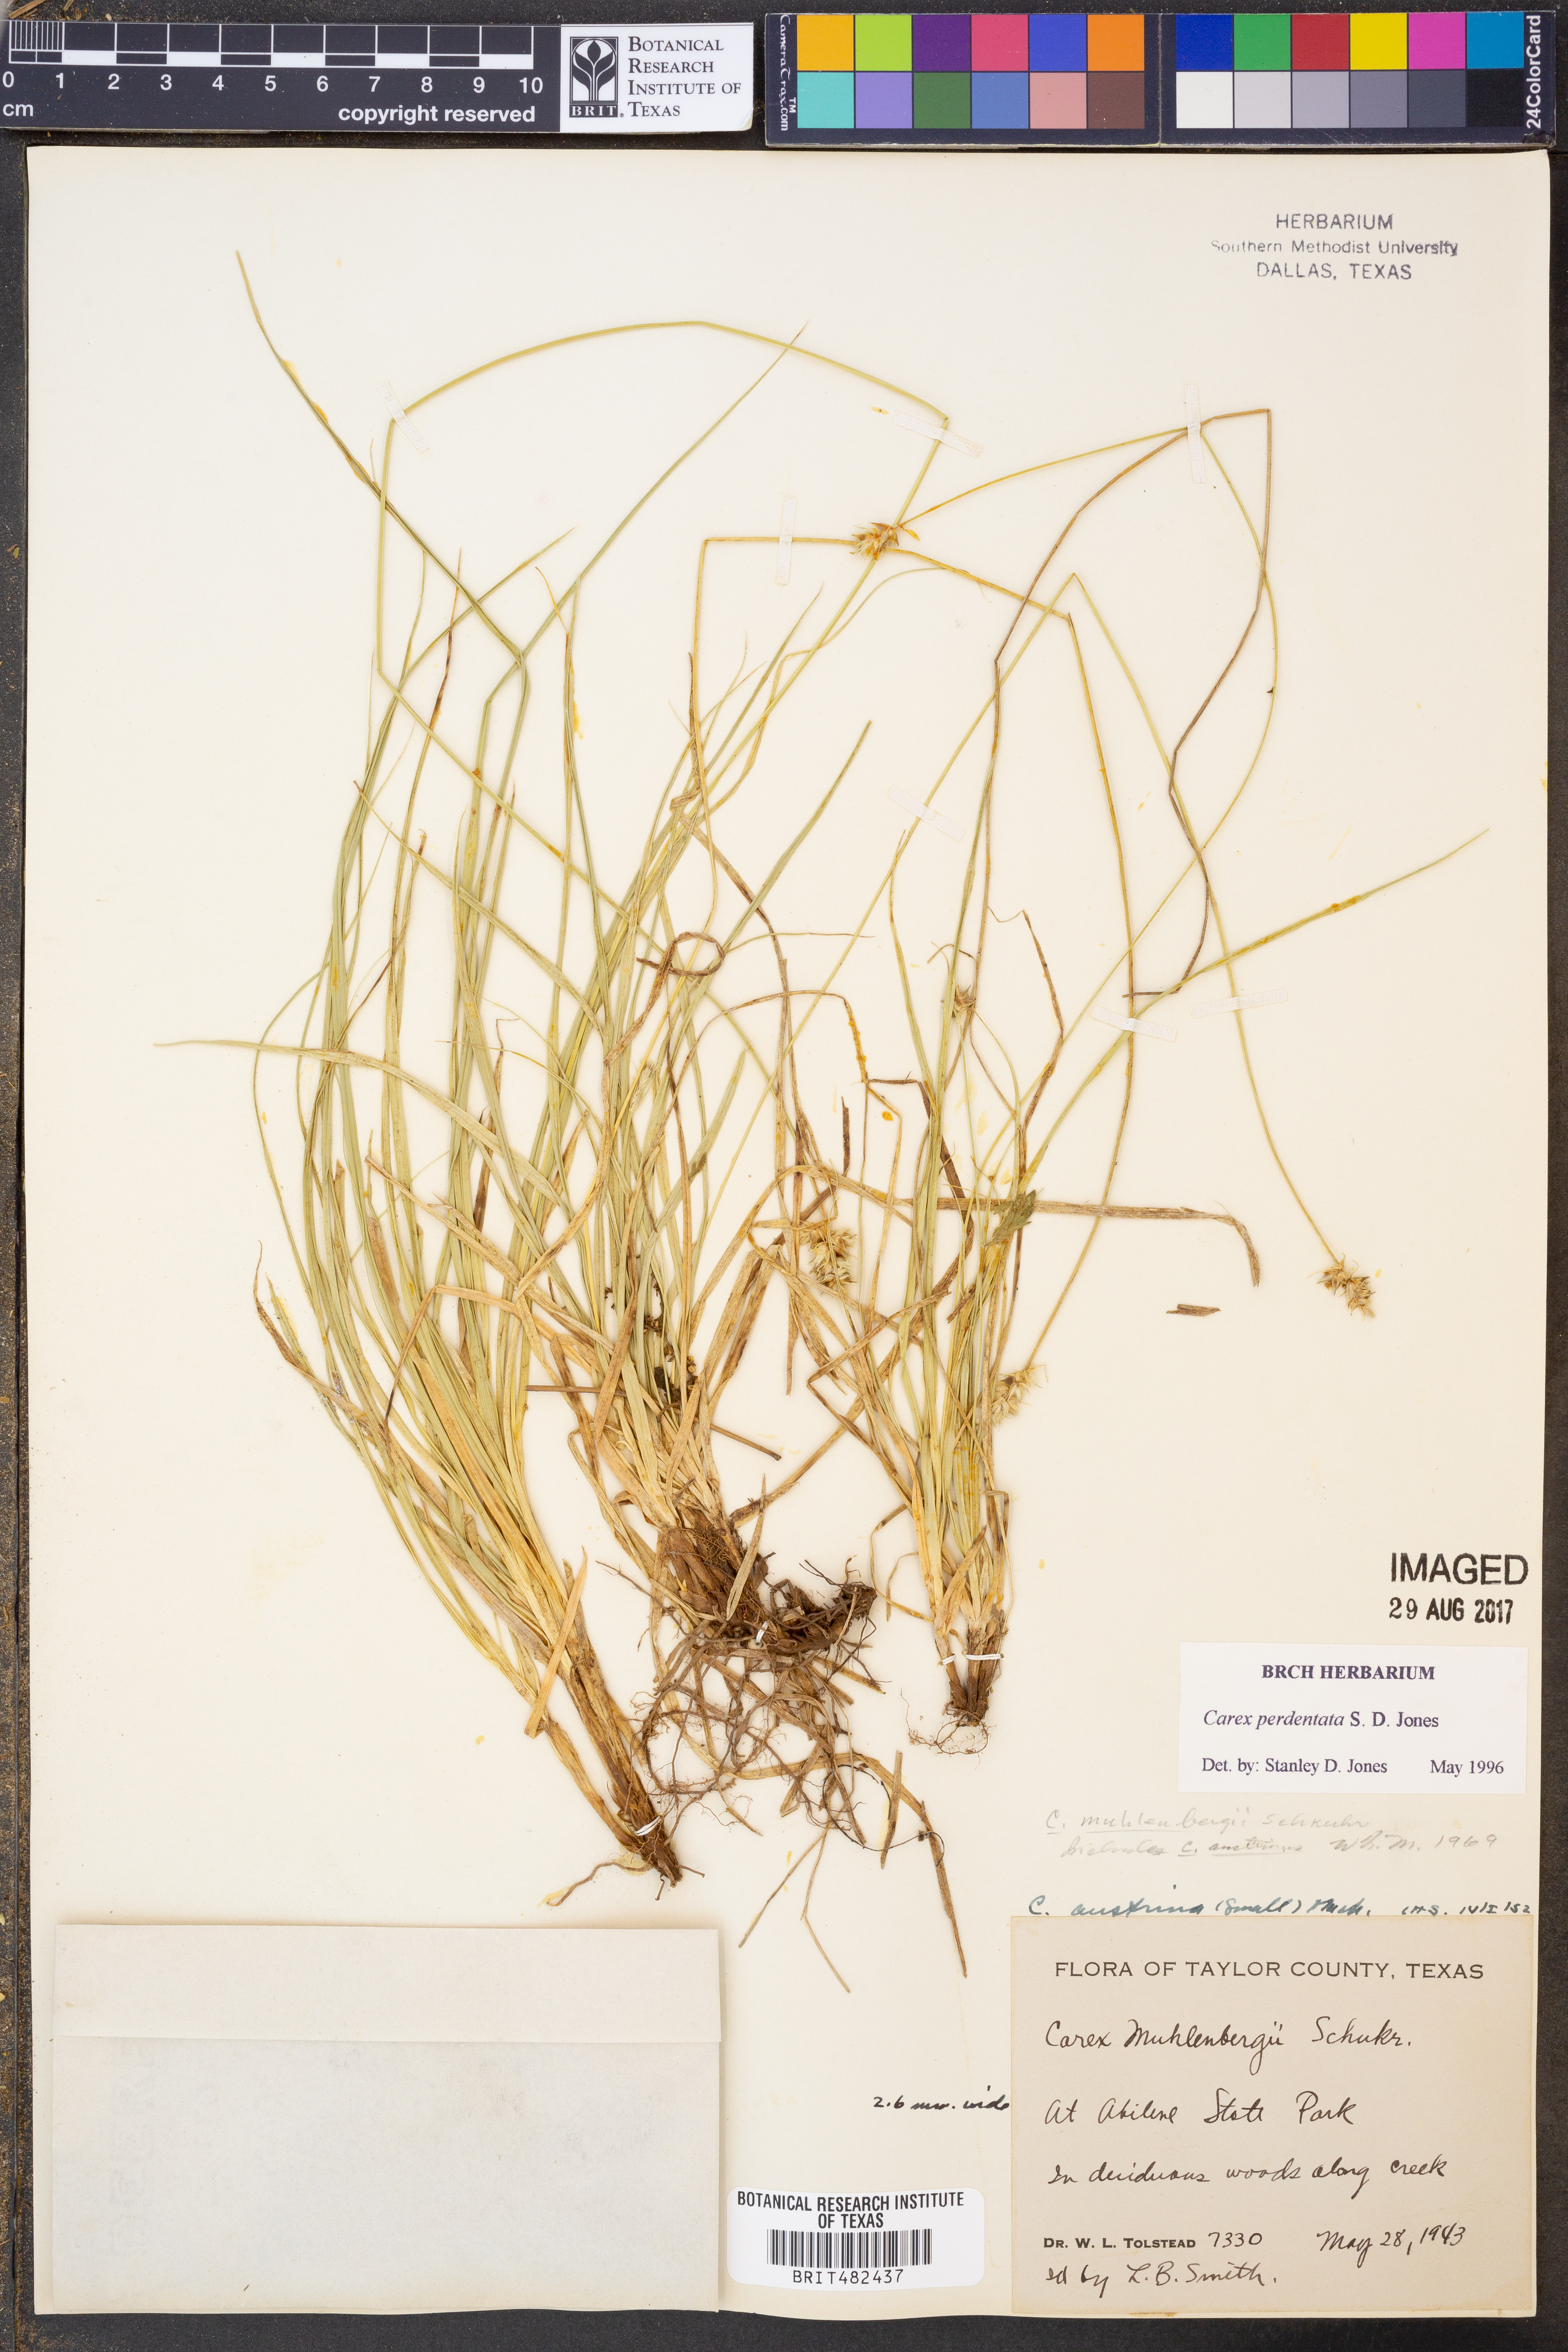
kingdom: Plantae
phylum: Tracheophyta
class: Liliopsida
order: Poales
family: Cyperaceae
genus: Carex
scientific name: Carex perdentata
